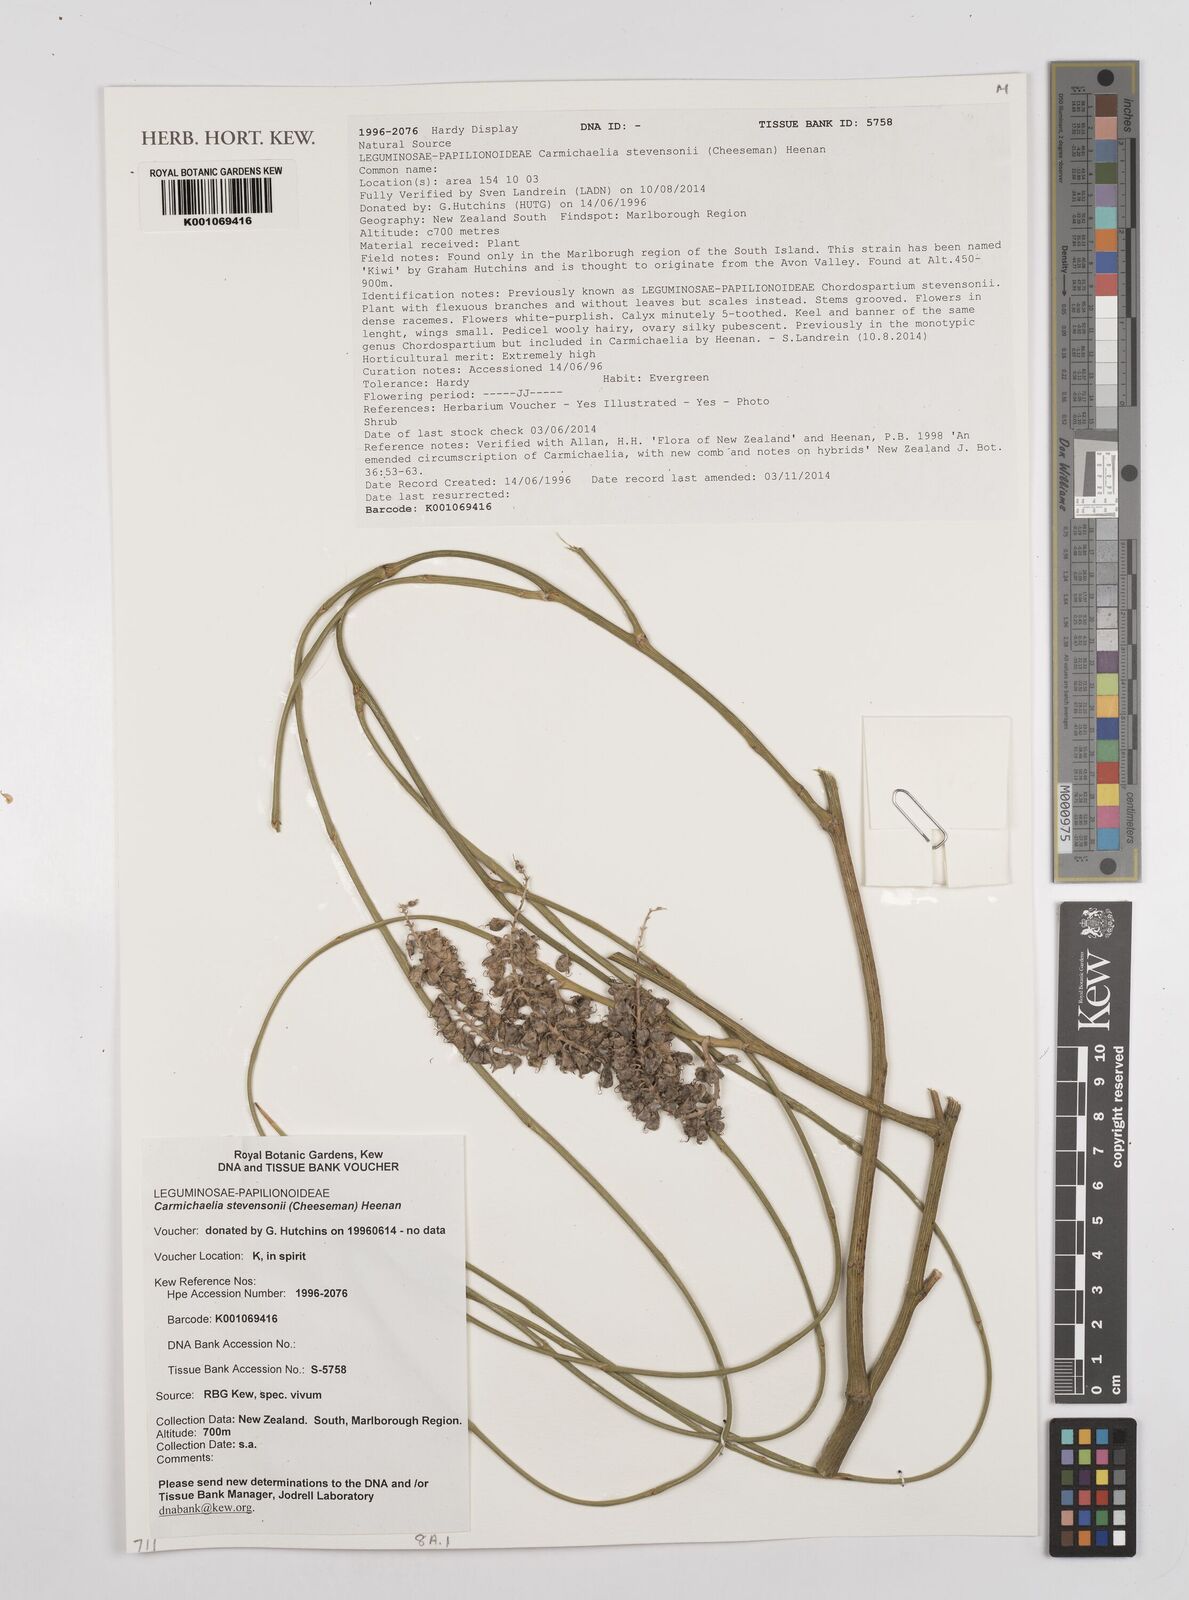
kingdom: Plantae
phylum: Tracheophyta
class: Magnoliopsida
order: Fabales
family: Fabaceae
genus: Carmichaelia
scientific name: Carmichaelia stevensonii
